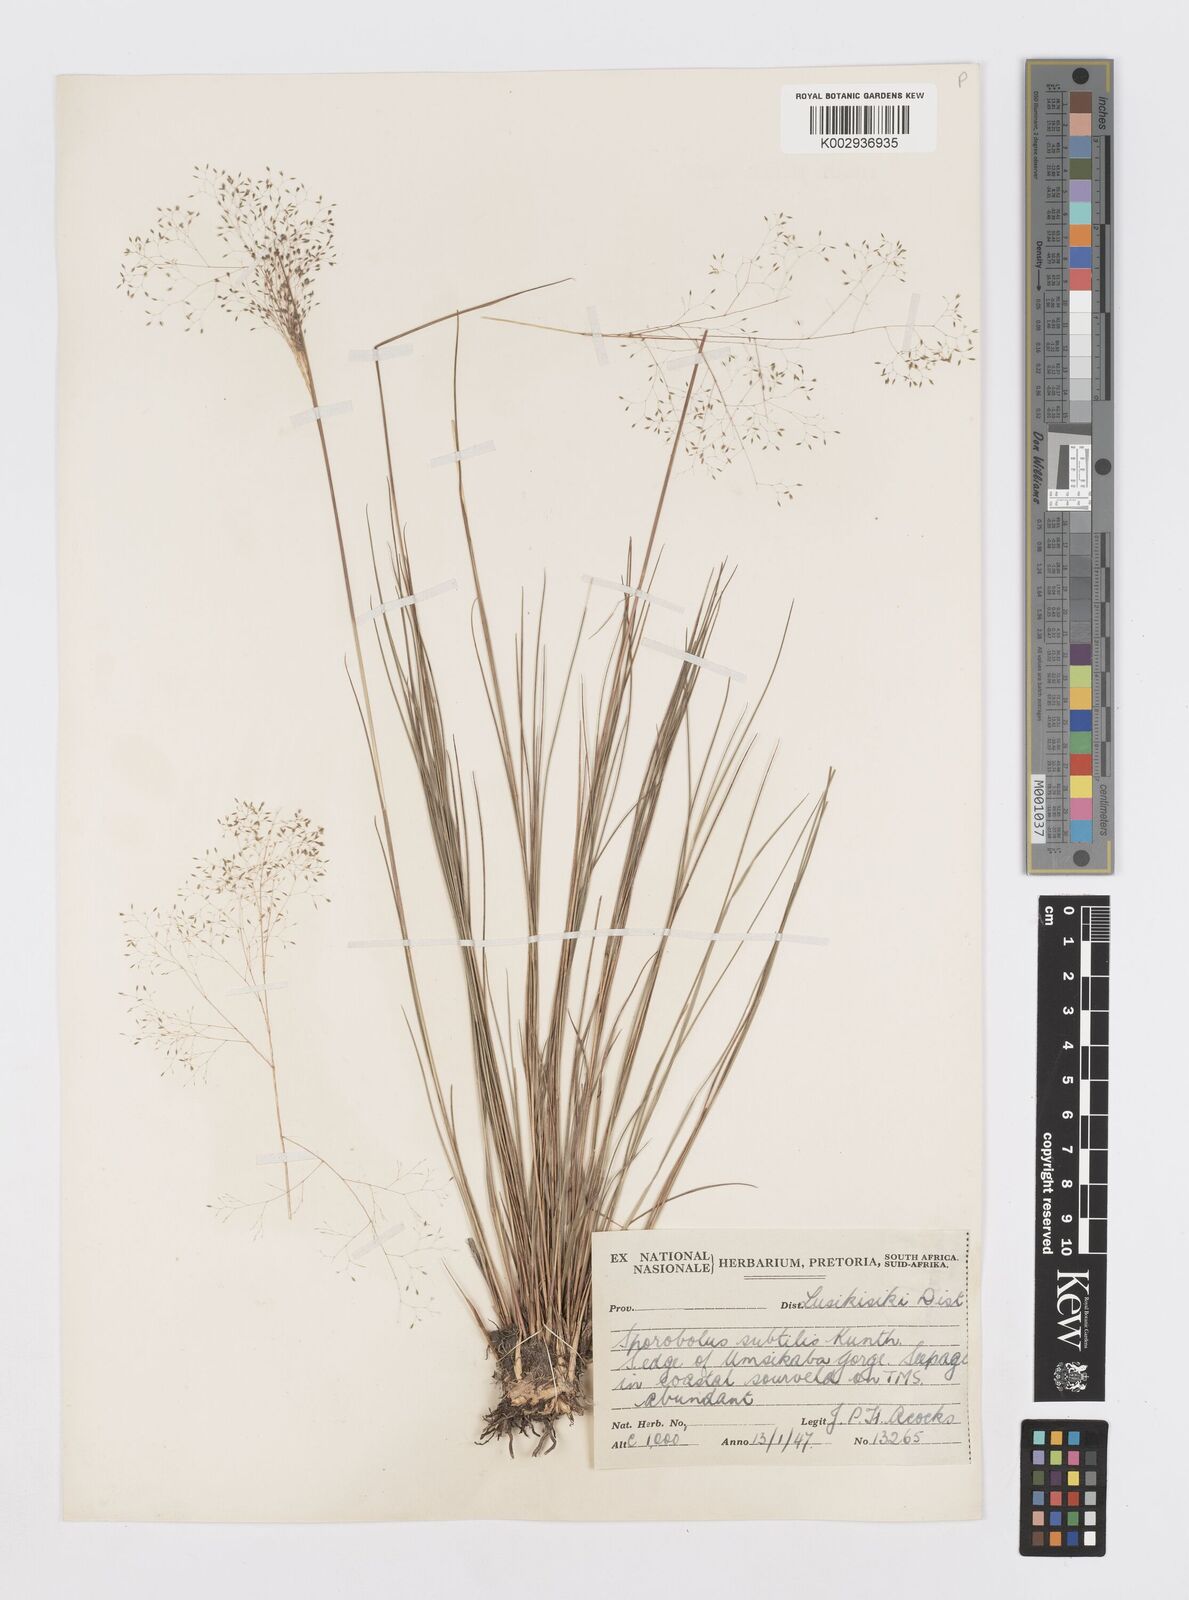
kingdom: Plantae
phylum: Tracheophyta
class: Liliopsida
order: Poales
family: Poaceae
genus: Sporobolus
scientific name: Sporobolus subtilis
